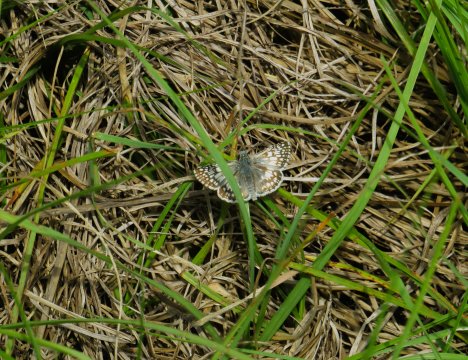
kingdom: Animalia
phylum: Arthropoda
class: Insecta
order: Lepidoptera
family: Hesperiidae
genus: Pyrgus
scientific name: Pyrgus oileus
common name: Tropical Checkered-Skipper
